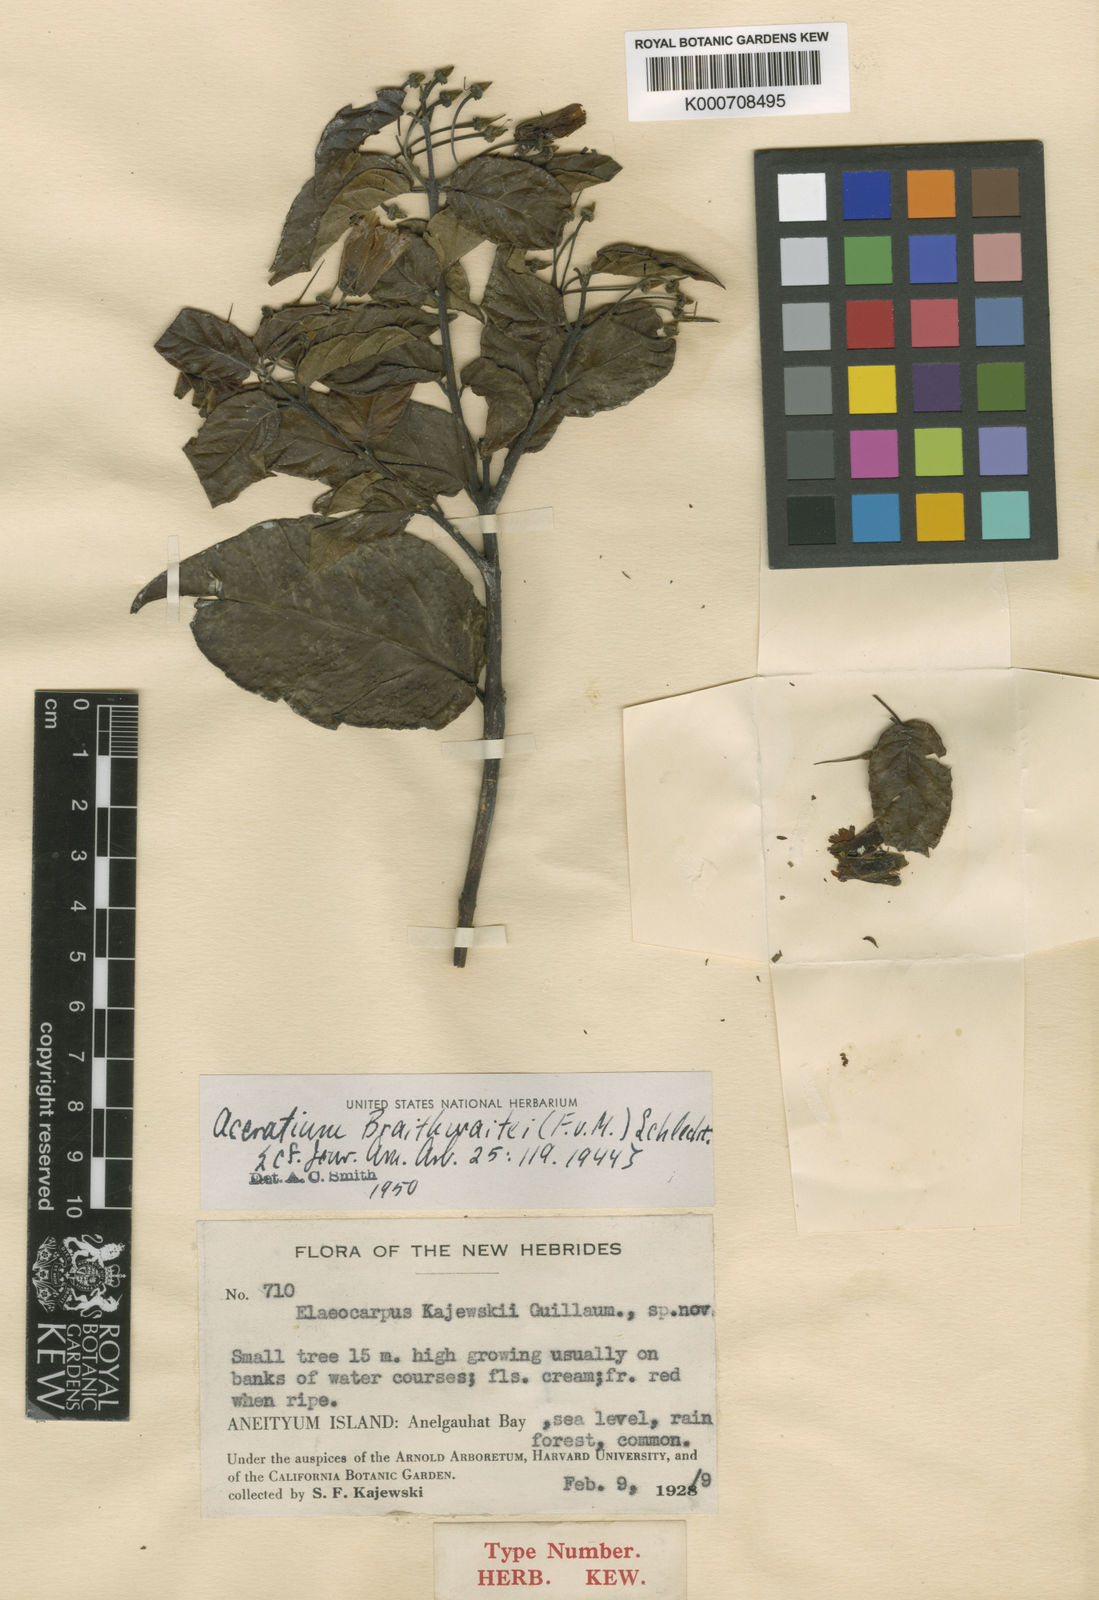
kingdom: Plantae
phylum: Tracheophyta
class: Magnoliopsida
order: Oxalidales
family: Elaeocarpaceae
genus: Aceratium
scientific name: Aceratium oppositifolium
